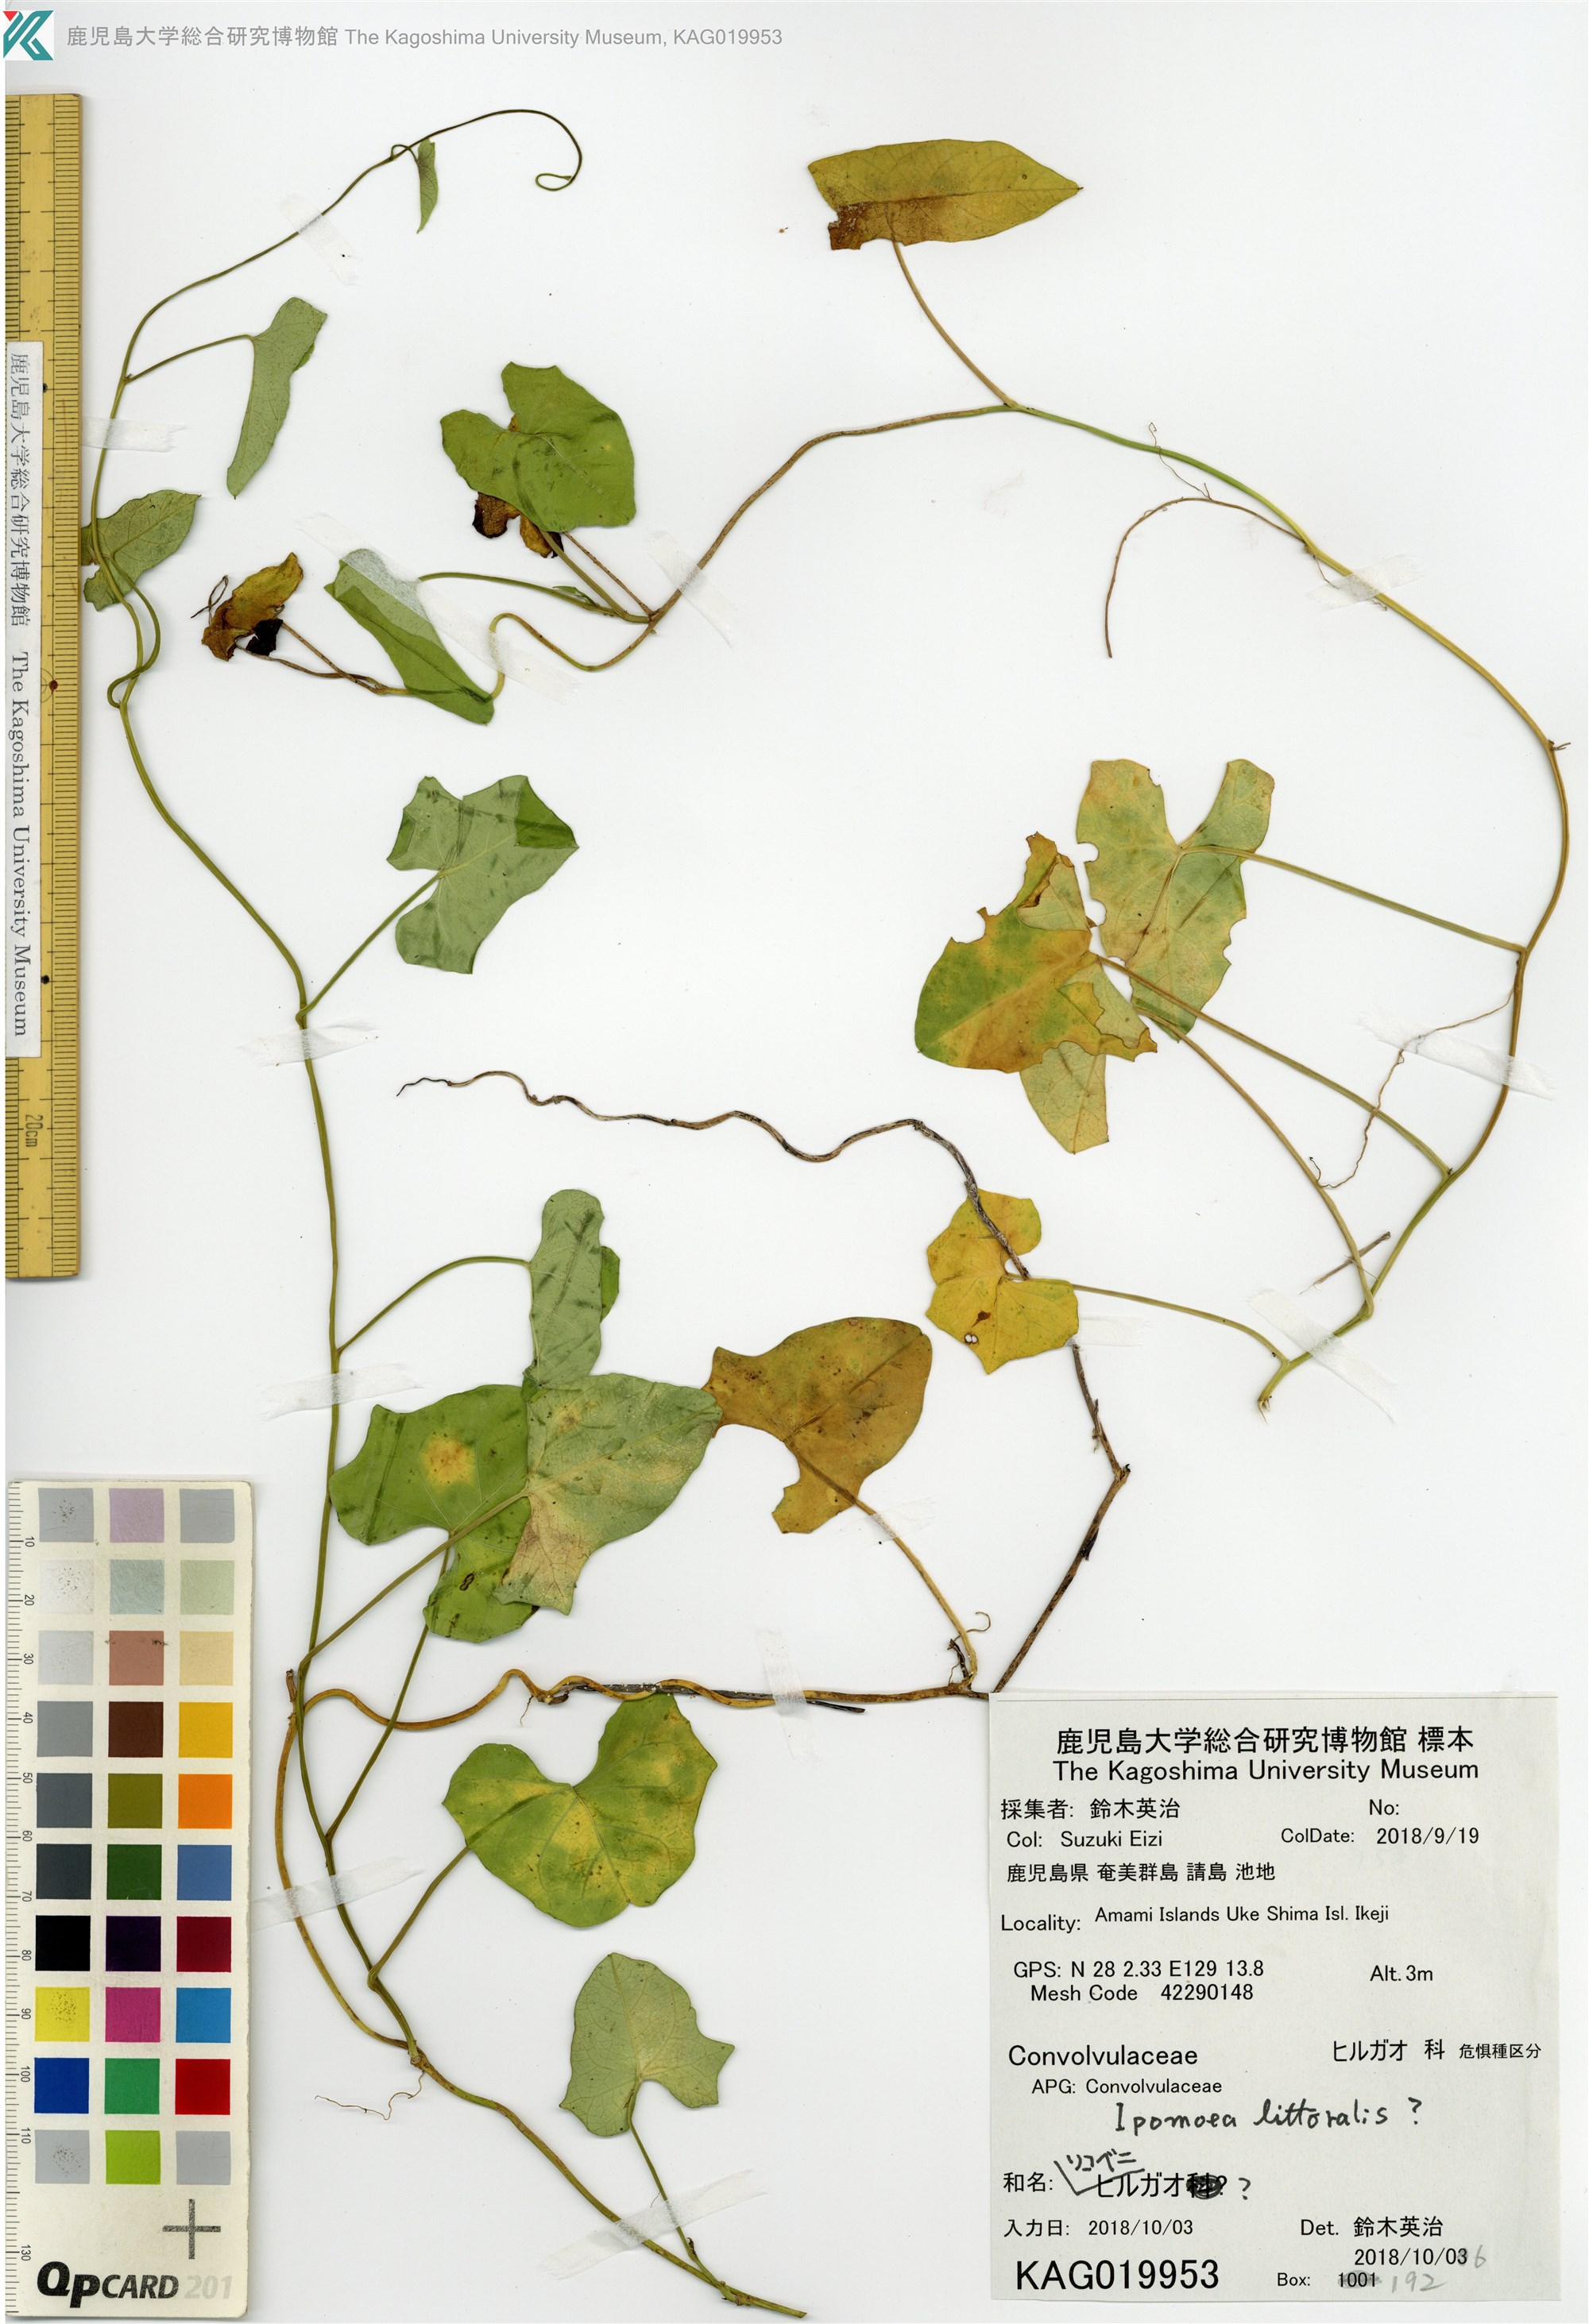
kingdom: Plantae
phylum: Tracheophyta
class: Magnoliopsida
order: Solanales
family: Convolvulaceae
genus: Ipomoea
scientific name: Ipomoea littoralis
